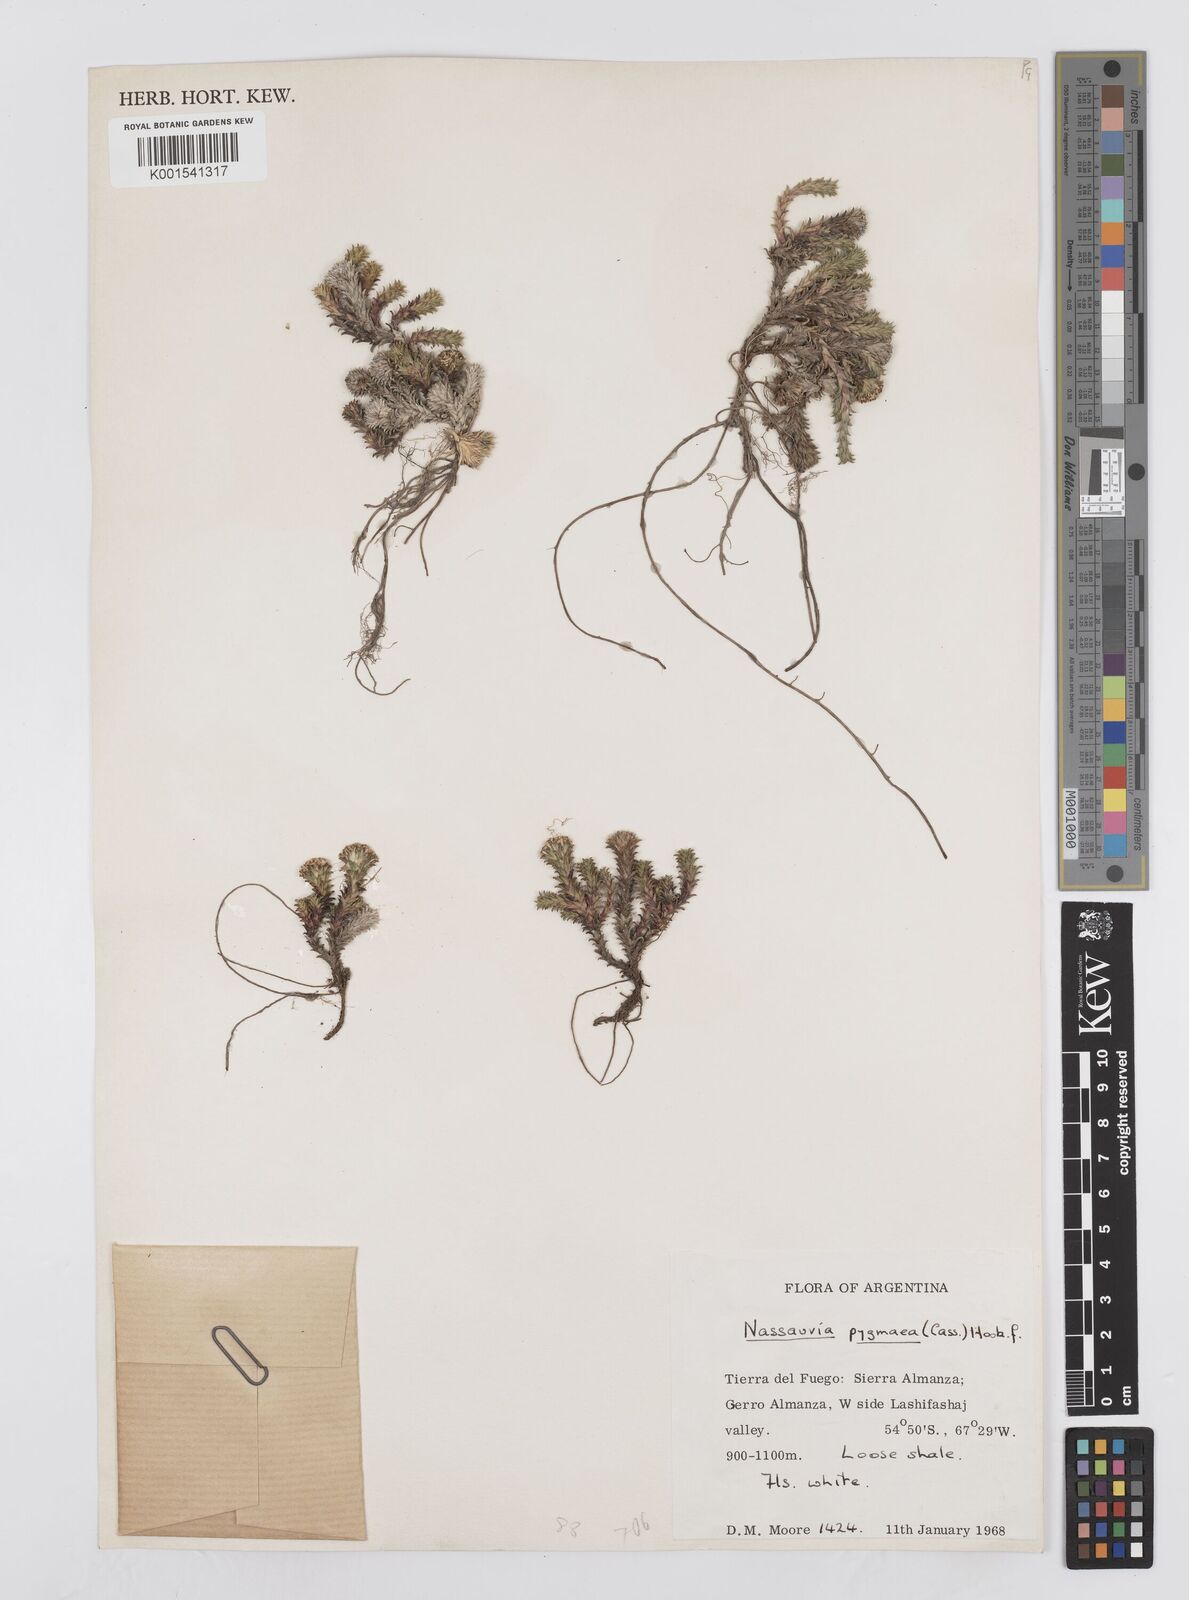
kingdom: Plantae
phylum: Tracheophyta
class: Magnoliopsida
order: Asterales
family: Asteraceae
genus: Nassauvia
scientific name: Nassauvia pygmaea
